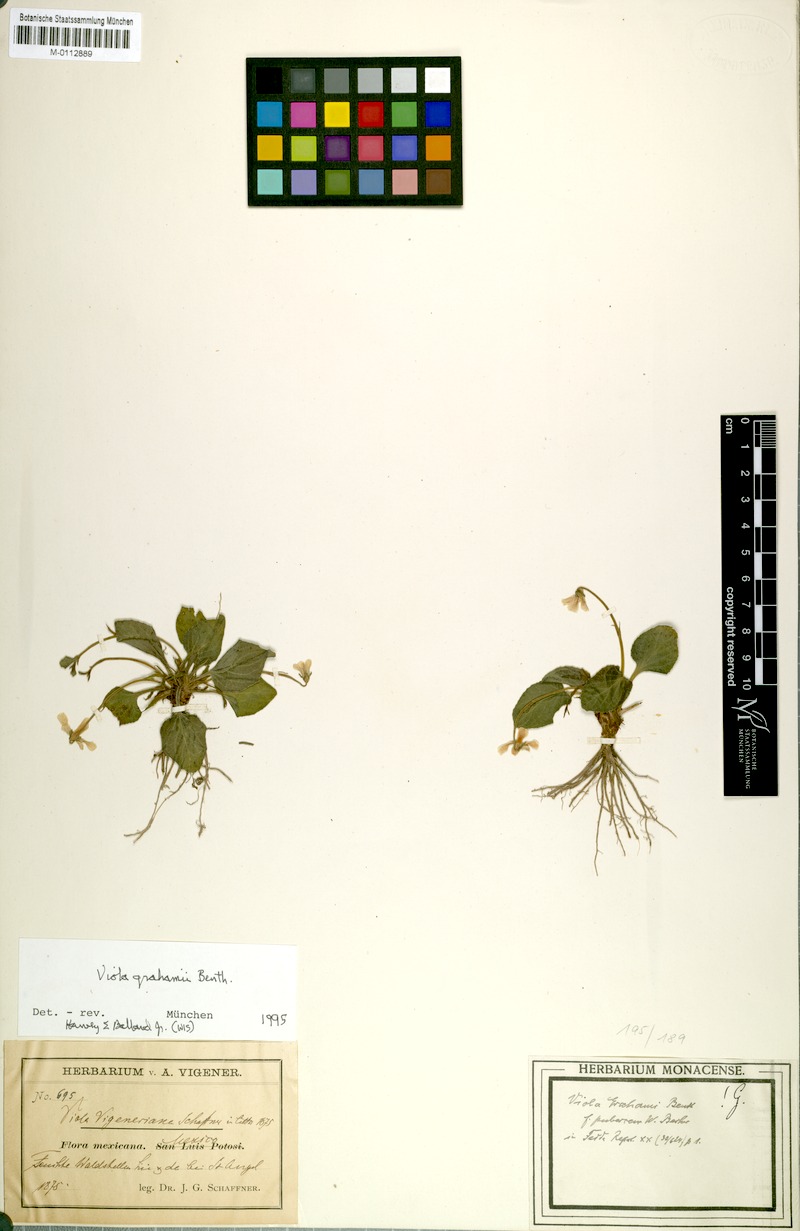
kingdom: Plantae
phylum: Tracheophyta
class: Magnoliopsida
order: Malpighiales
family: Violaceae
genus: Viola
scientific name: Viola grahamii
